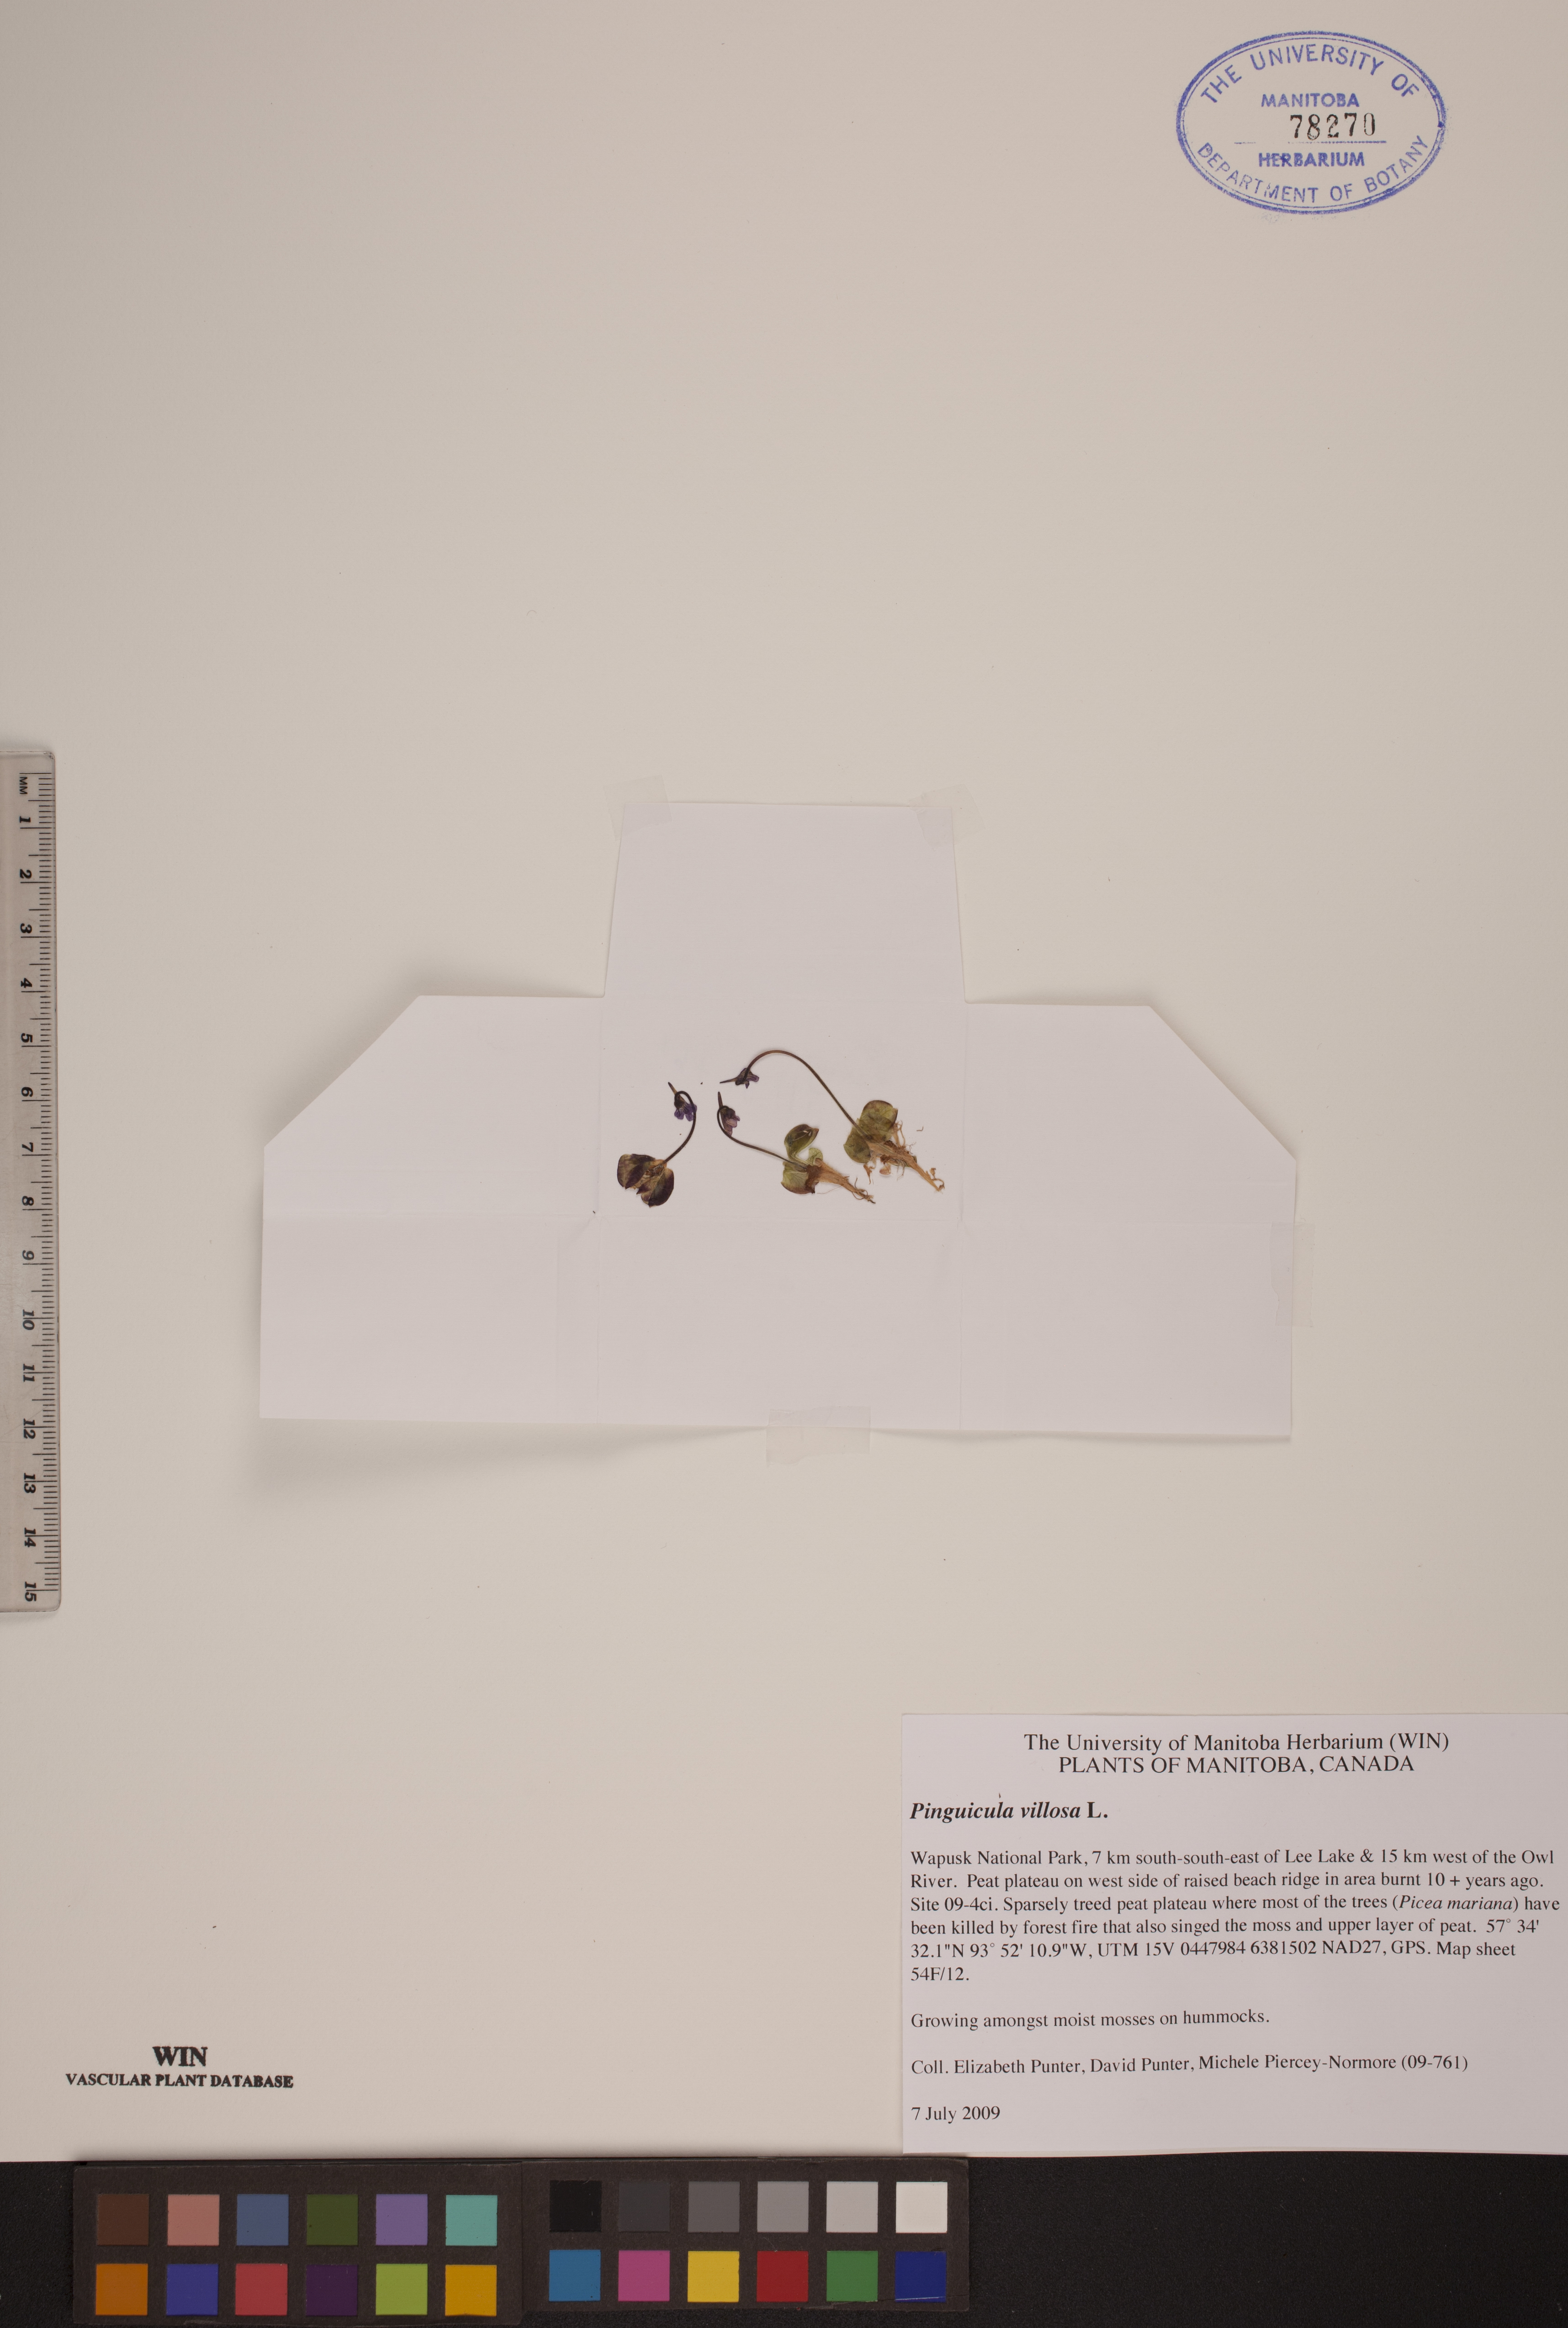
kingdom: Plantae
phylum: Tracheophyta
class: Magnoliopsida
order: Lamiales
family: Lentibulariaceae
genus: Pinguicula
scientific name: Pinguicula villosa
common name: Hairy butterwort
